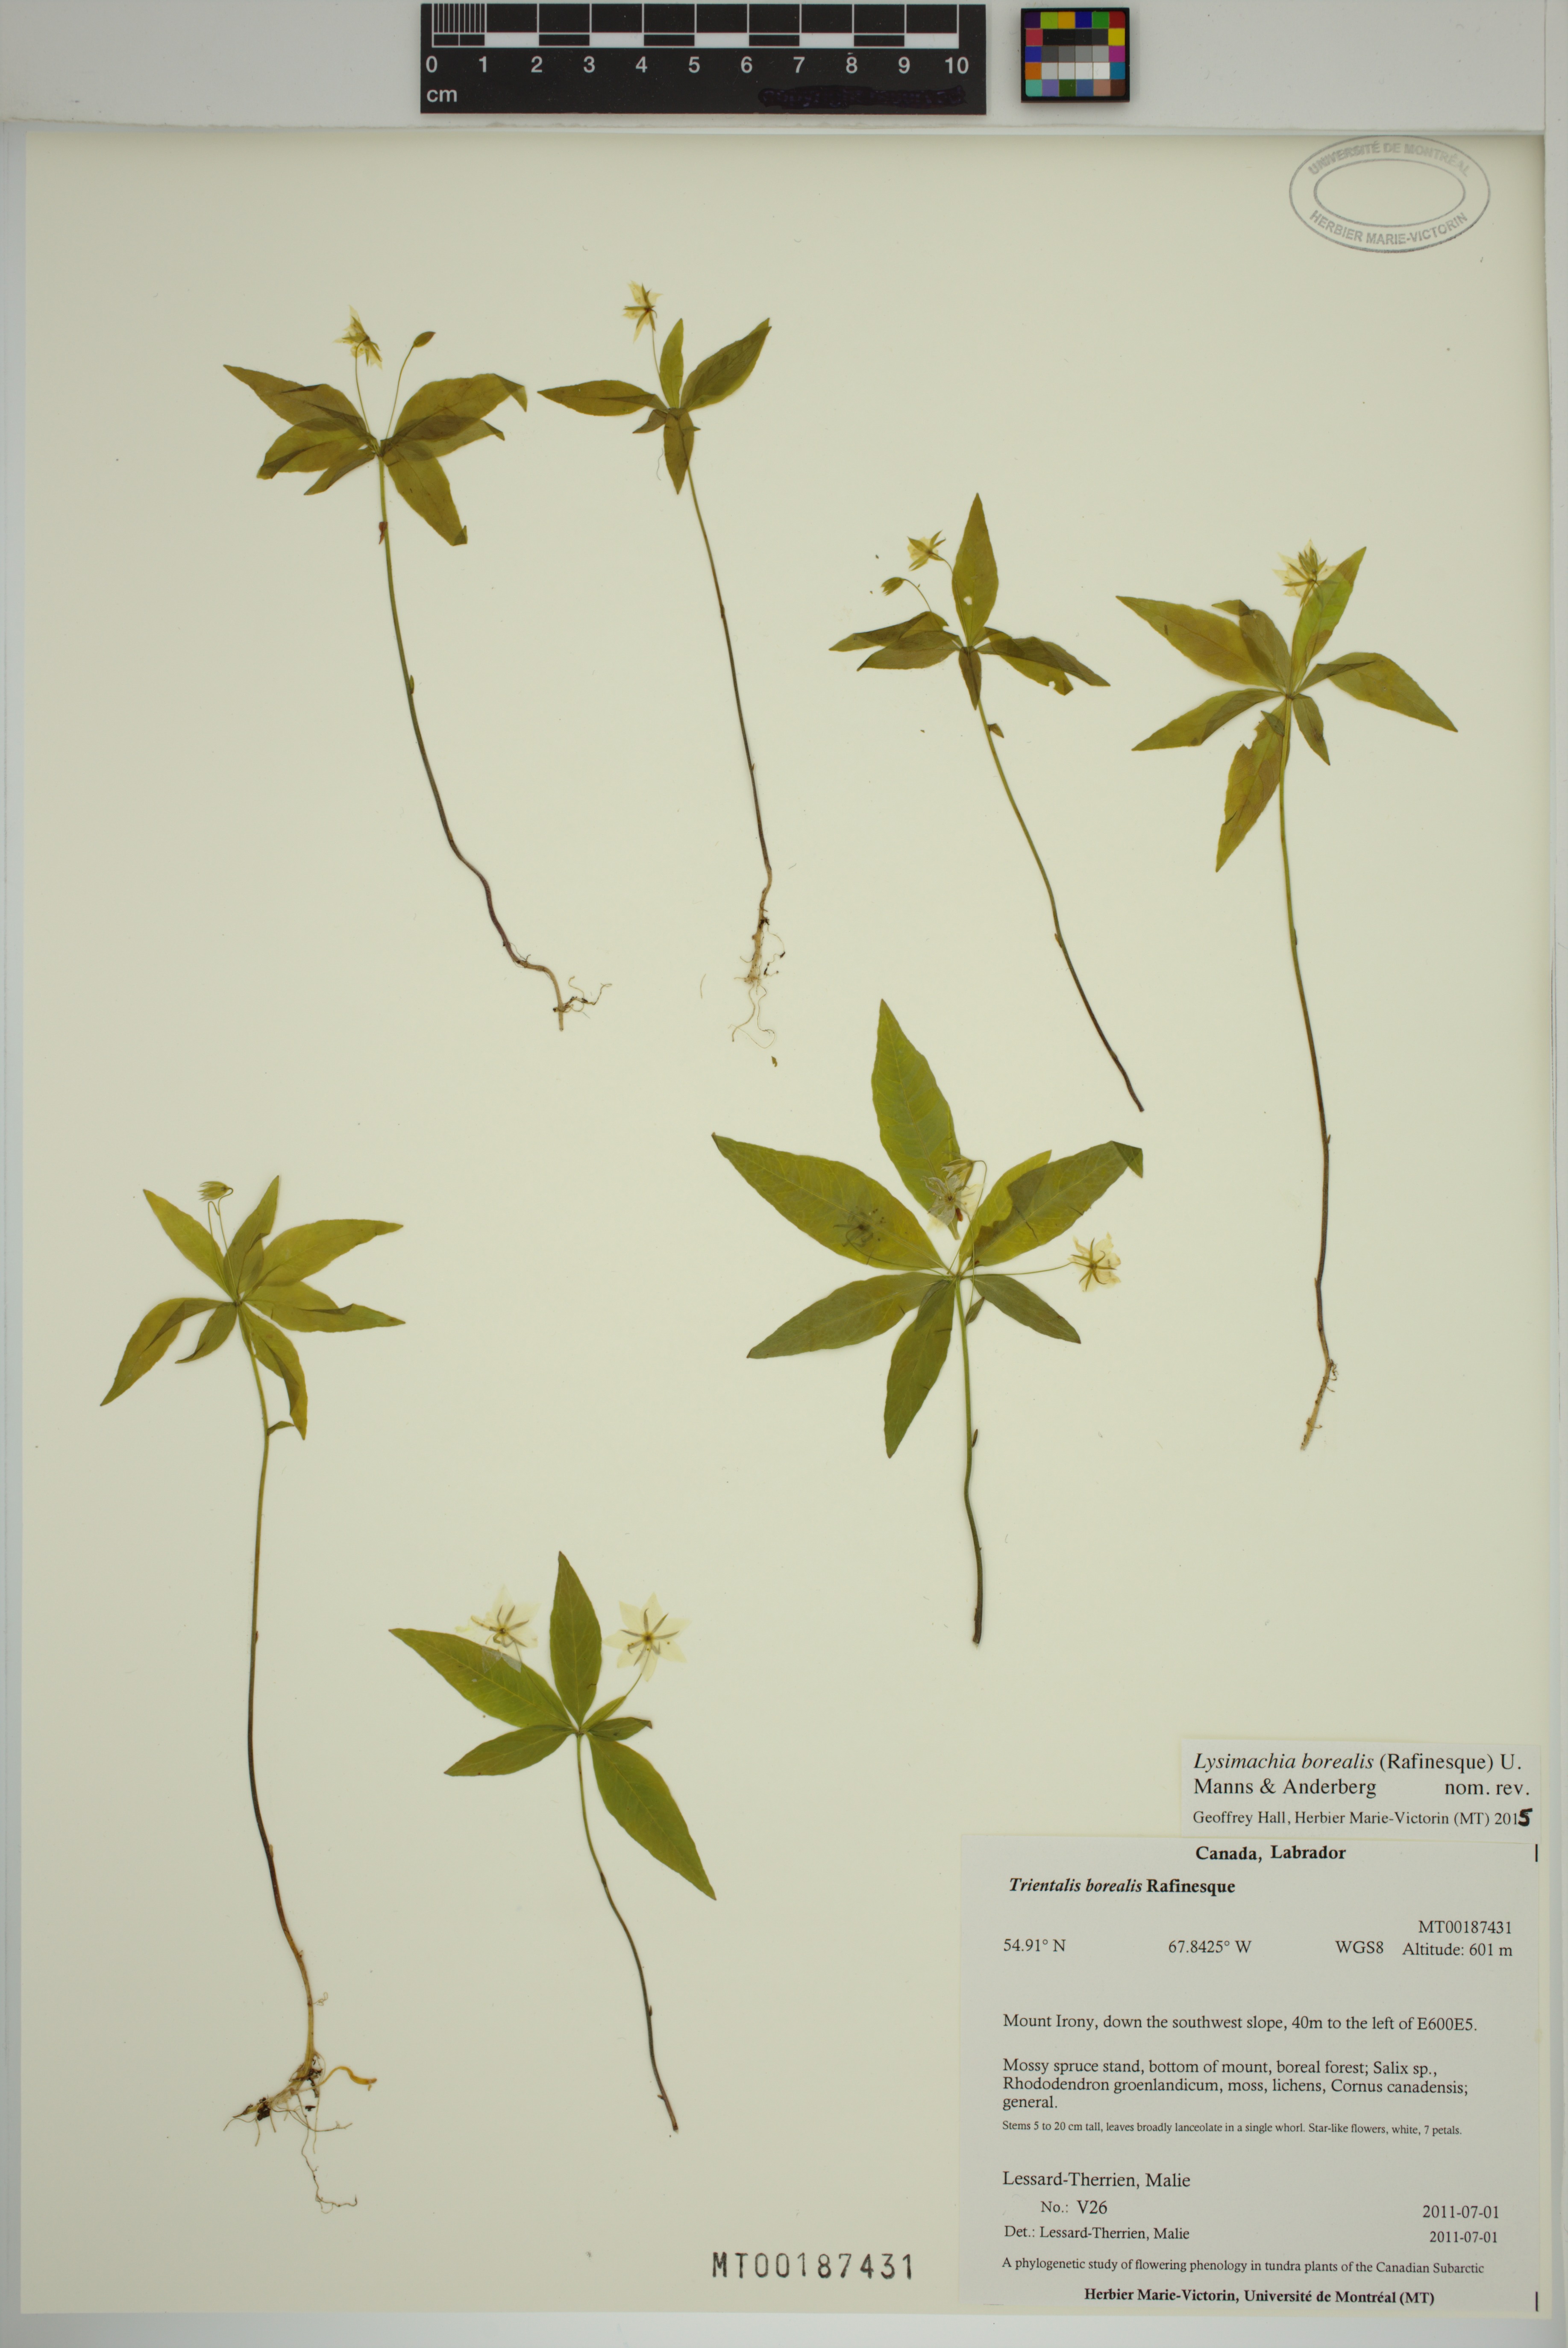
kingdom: Plantae
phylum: Tracheophyta
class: Magnoliopsida
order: Ericales
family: Primulaceae
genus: Lysimachia
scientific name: Lysimachia borealis
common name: American starflower
